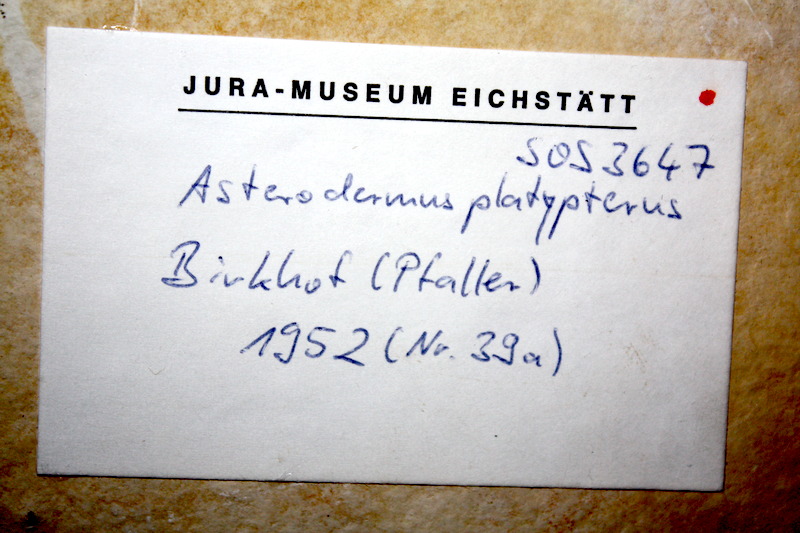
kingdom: Animalia
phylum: Chordata
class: Elasmobranchii
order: Rhinopristiformes
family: Rhinobatidae
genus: Asterodermus
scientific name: Asterodermus platypterus
